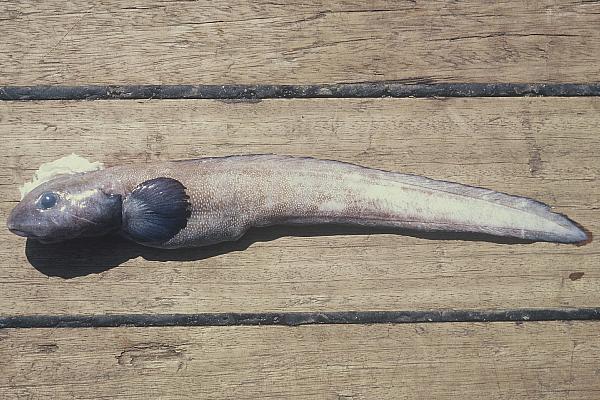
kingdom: Animalia
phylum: Chordata
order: Perciformes
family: Zoarcidae
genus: Lycodes
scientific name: Lycodes terraenovae
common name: Newfoundland eelpout
